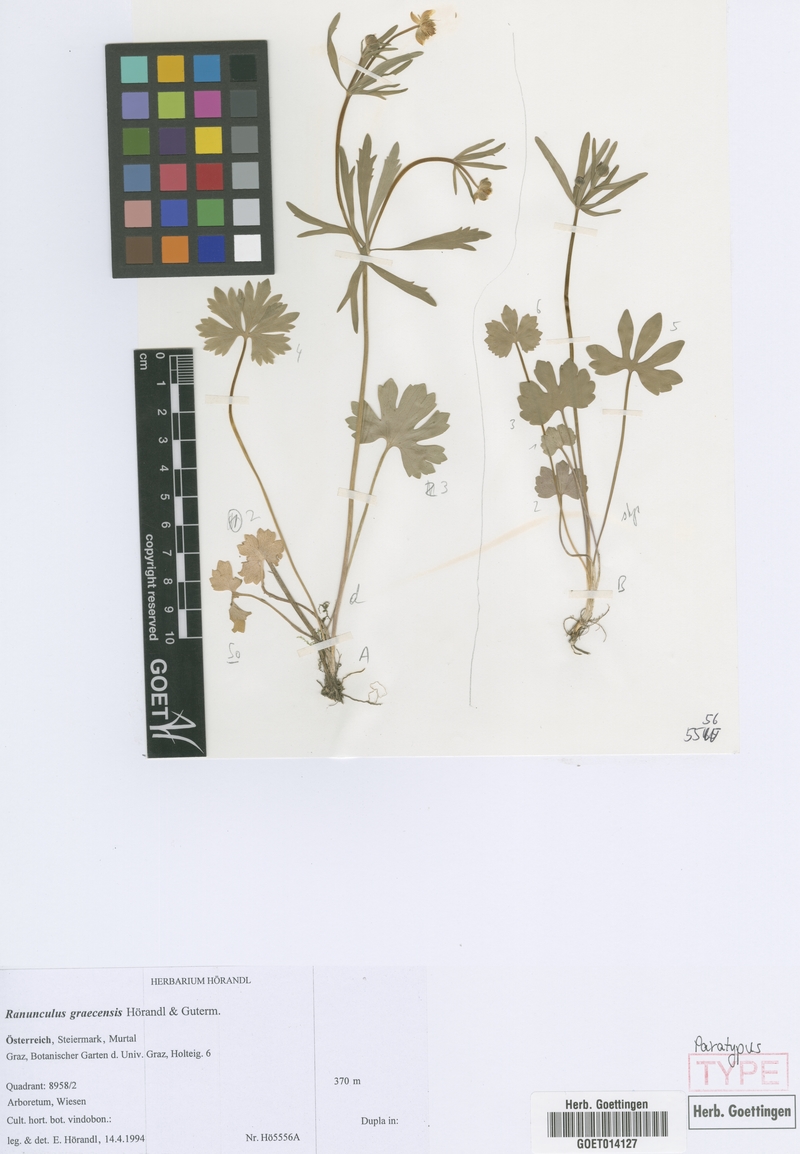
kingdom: Plantae
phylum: Tracheophyta
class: Magnoliopsida
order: Ranunculales
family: Ranunculaceae
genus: Ranunculus
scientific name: Ranunculus graecensis
